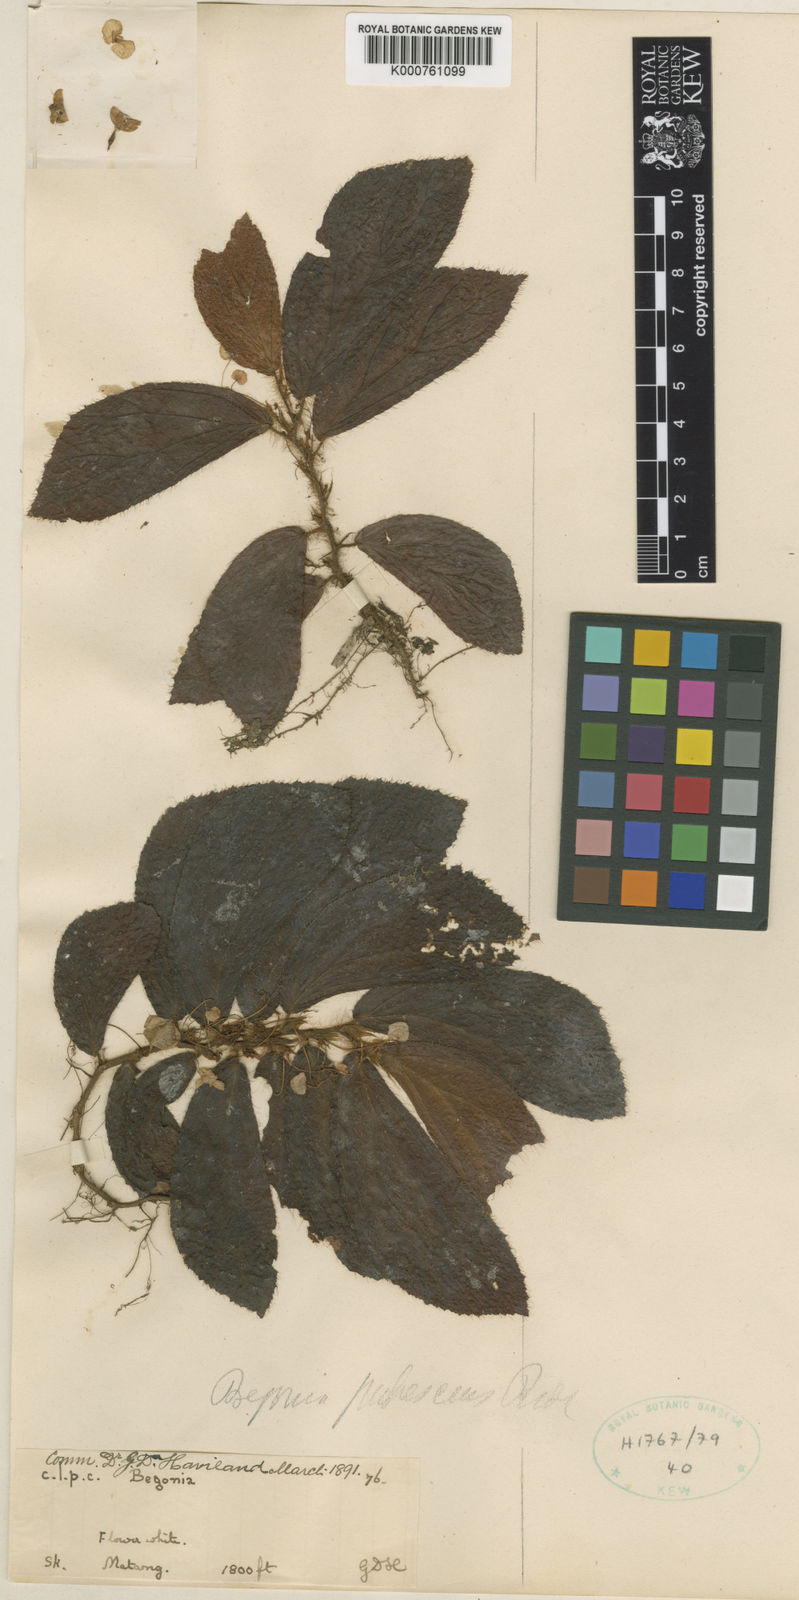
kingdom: Plantae
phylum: Tracheophyta
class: Magnoliopsida
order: Cucurbitales
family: Begoniaceae
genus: Begonia
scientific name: Begonia pubescens
